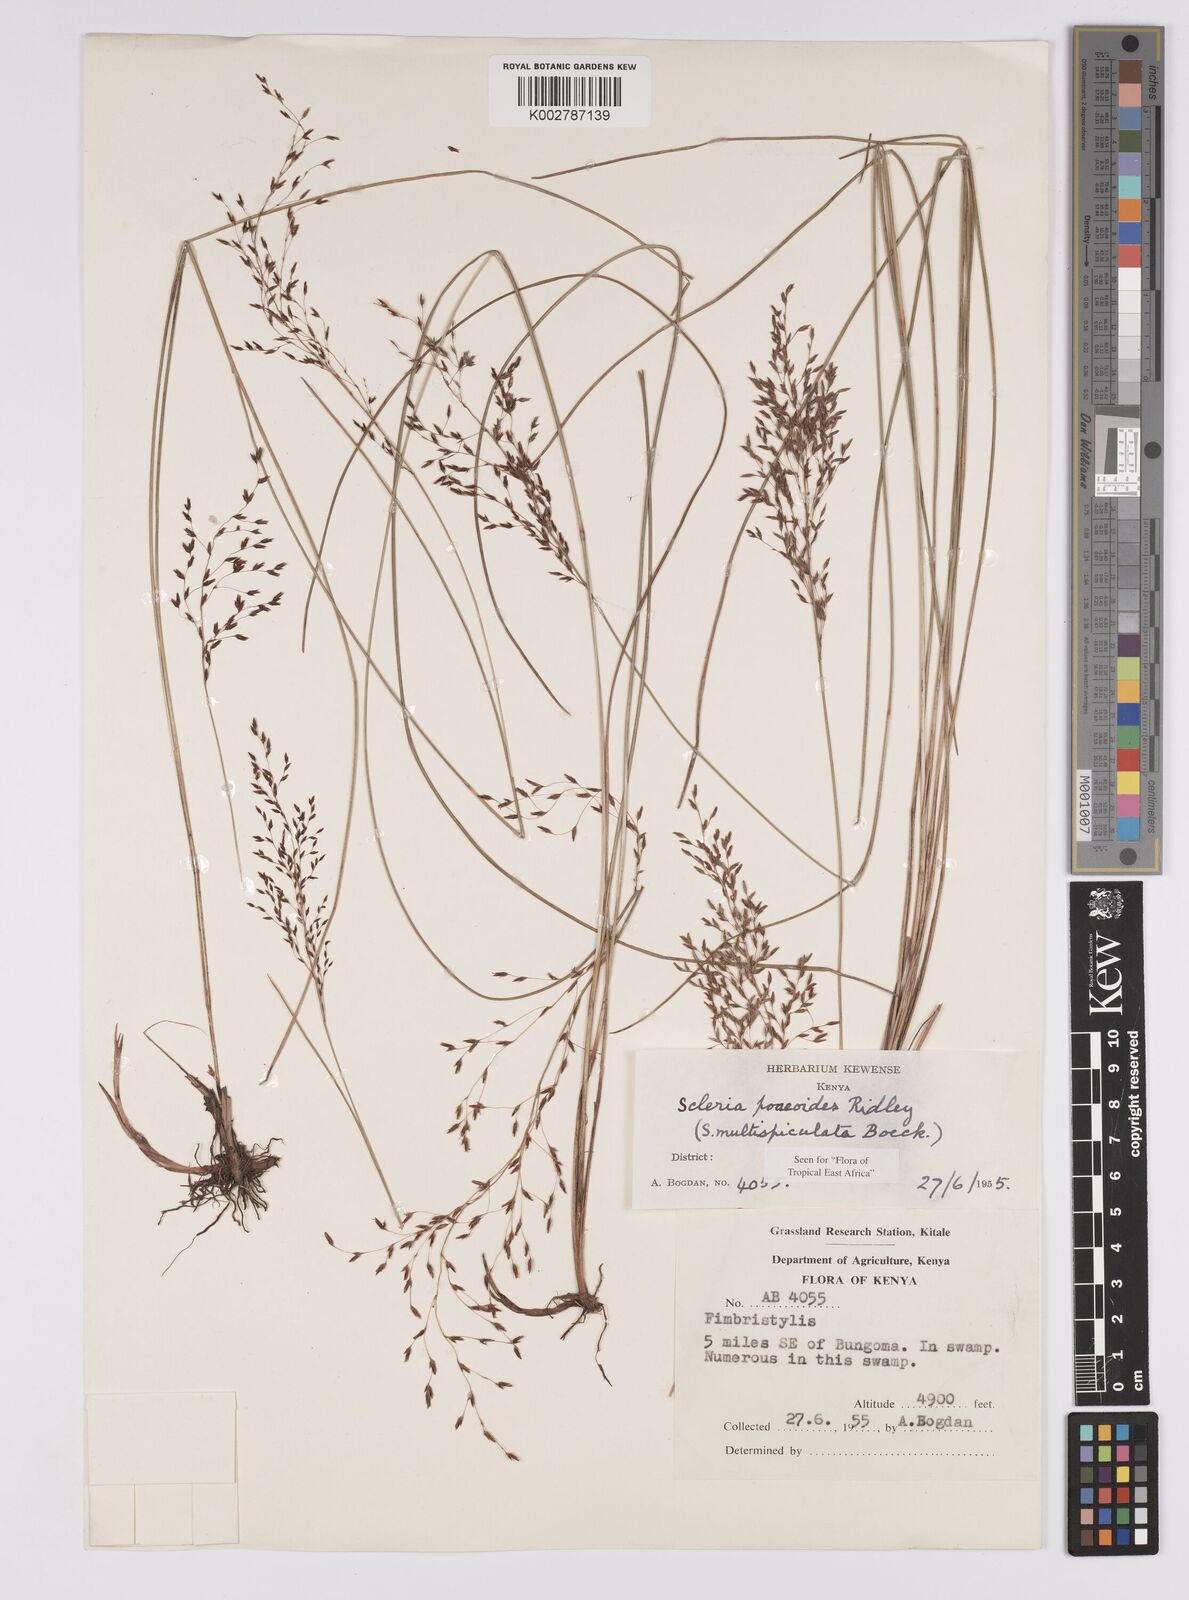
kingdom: Plantae
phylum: Tracheophyta
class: Liliopsida
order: Poales
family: Cyperaceae
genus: Scleria
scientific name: Scleria pooides
